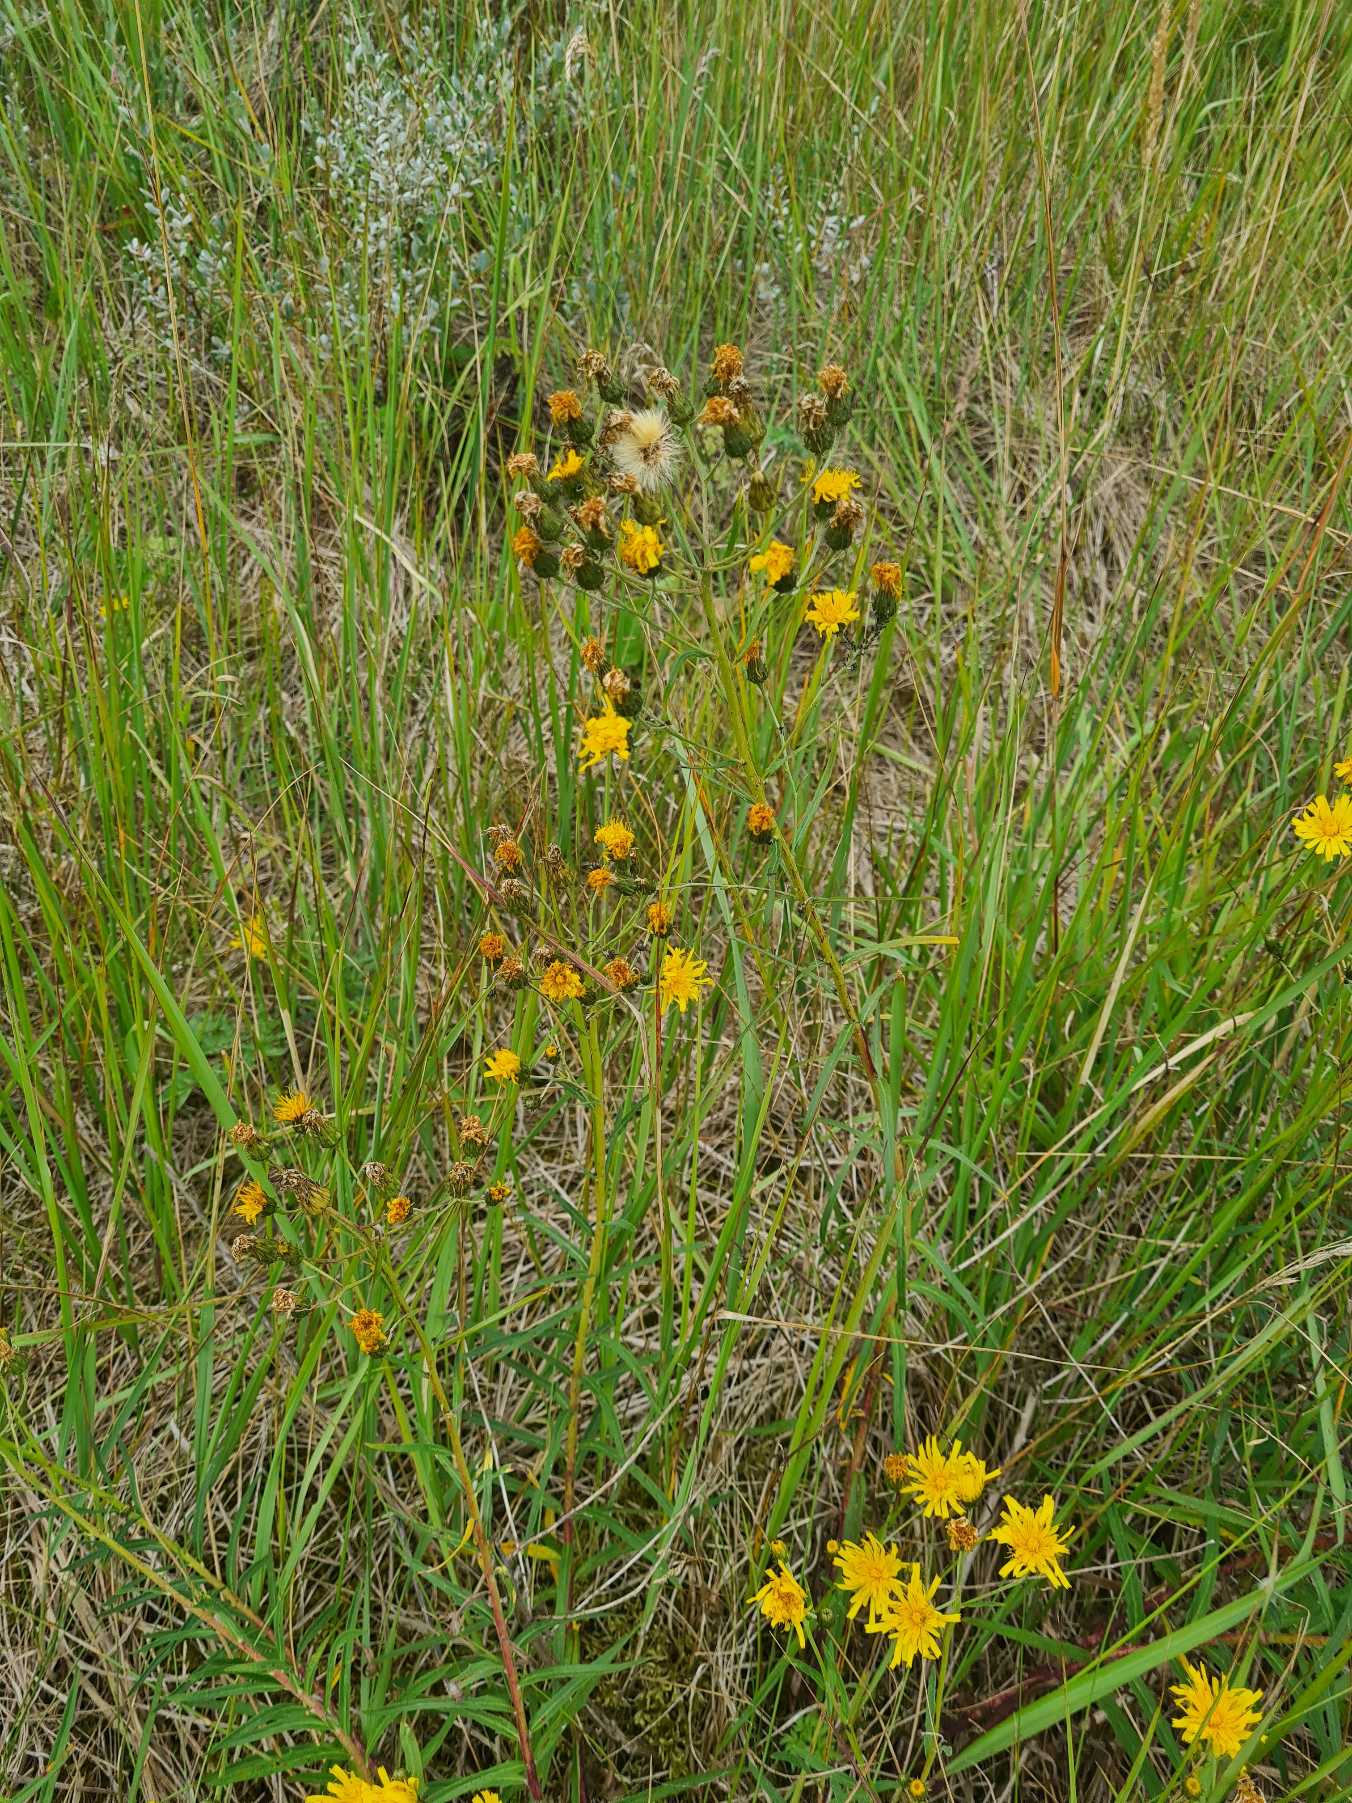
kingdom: Plantae
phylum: Tracheophyta
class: Magnoliopsida
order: Asterales
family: Asteraceae
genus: Hieracium
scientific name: Hieracium umbellatum
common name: Smalbladet høgeurt
